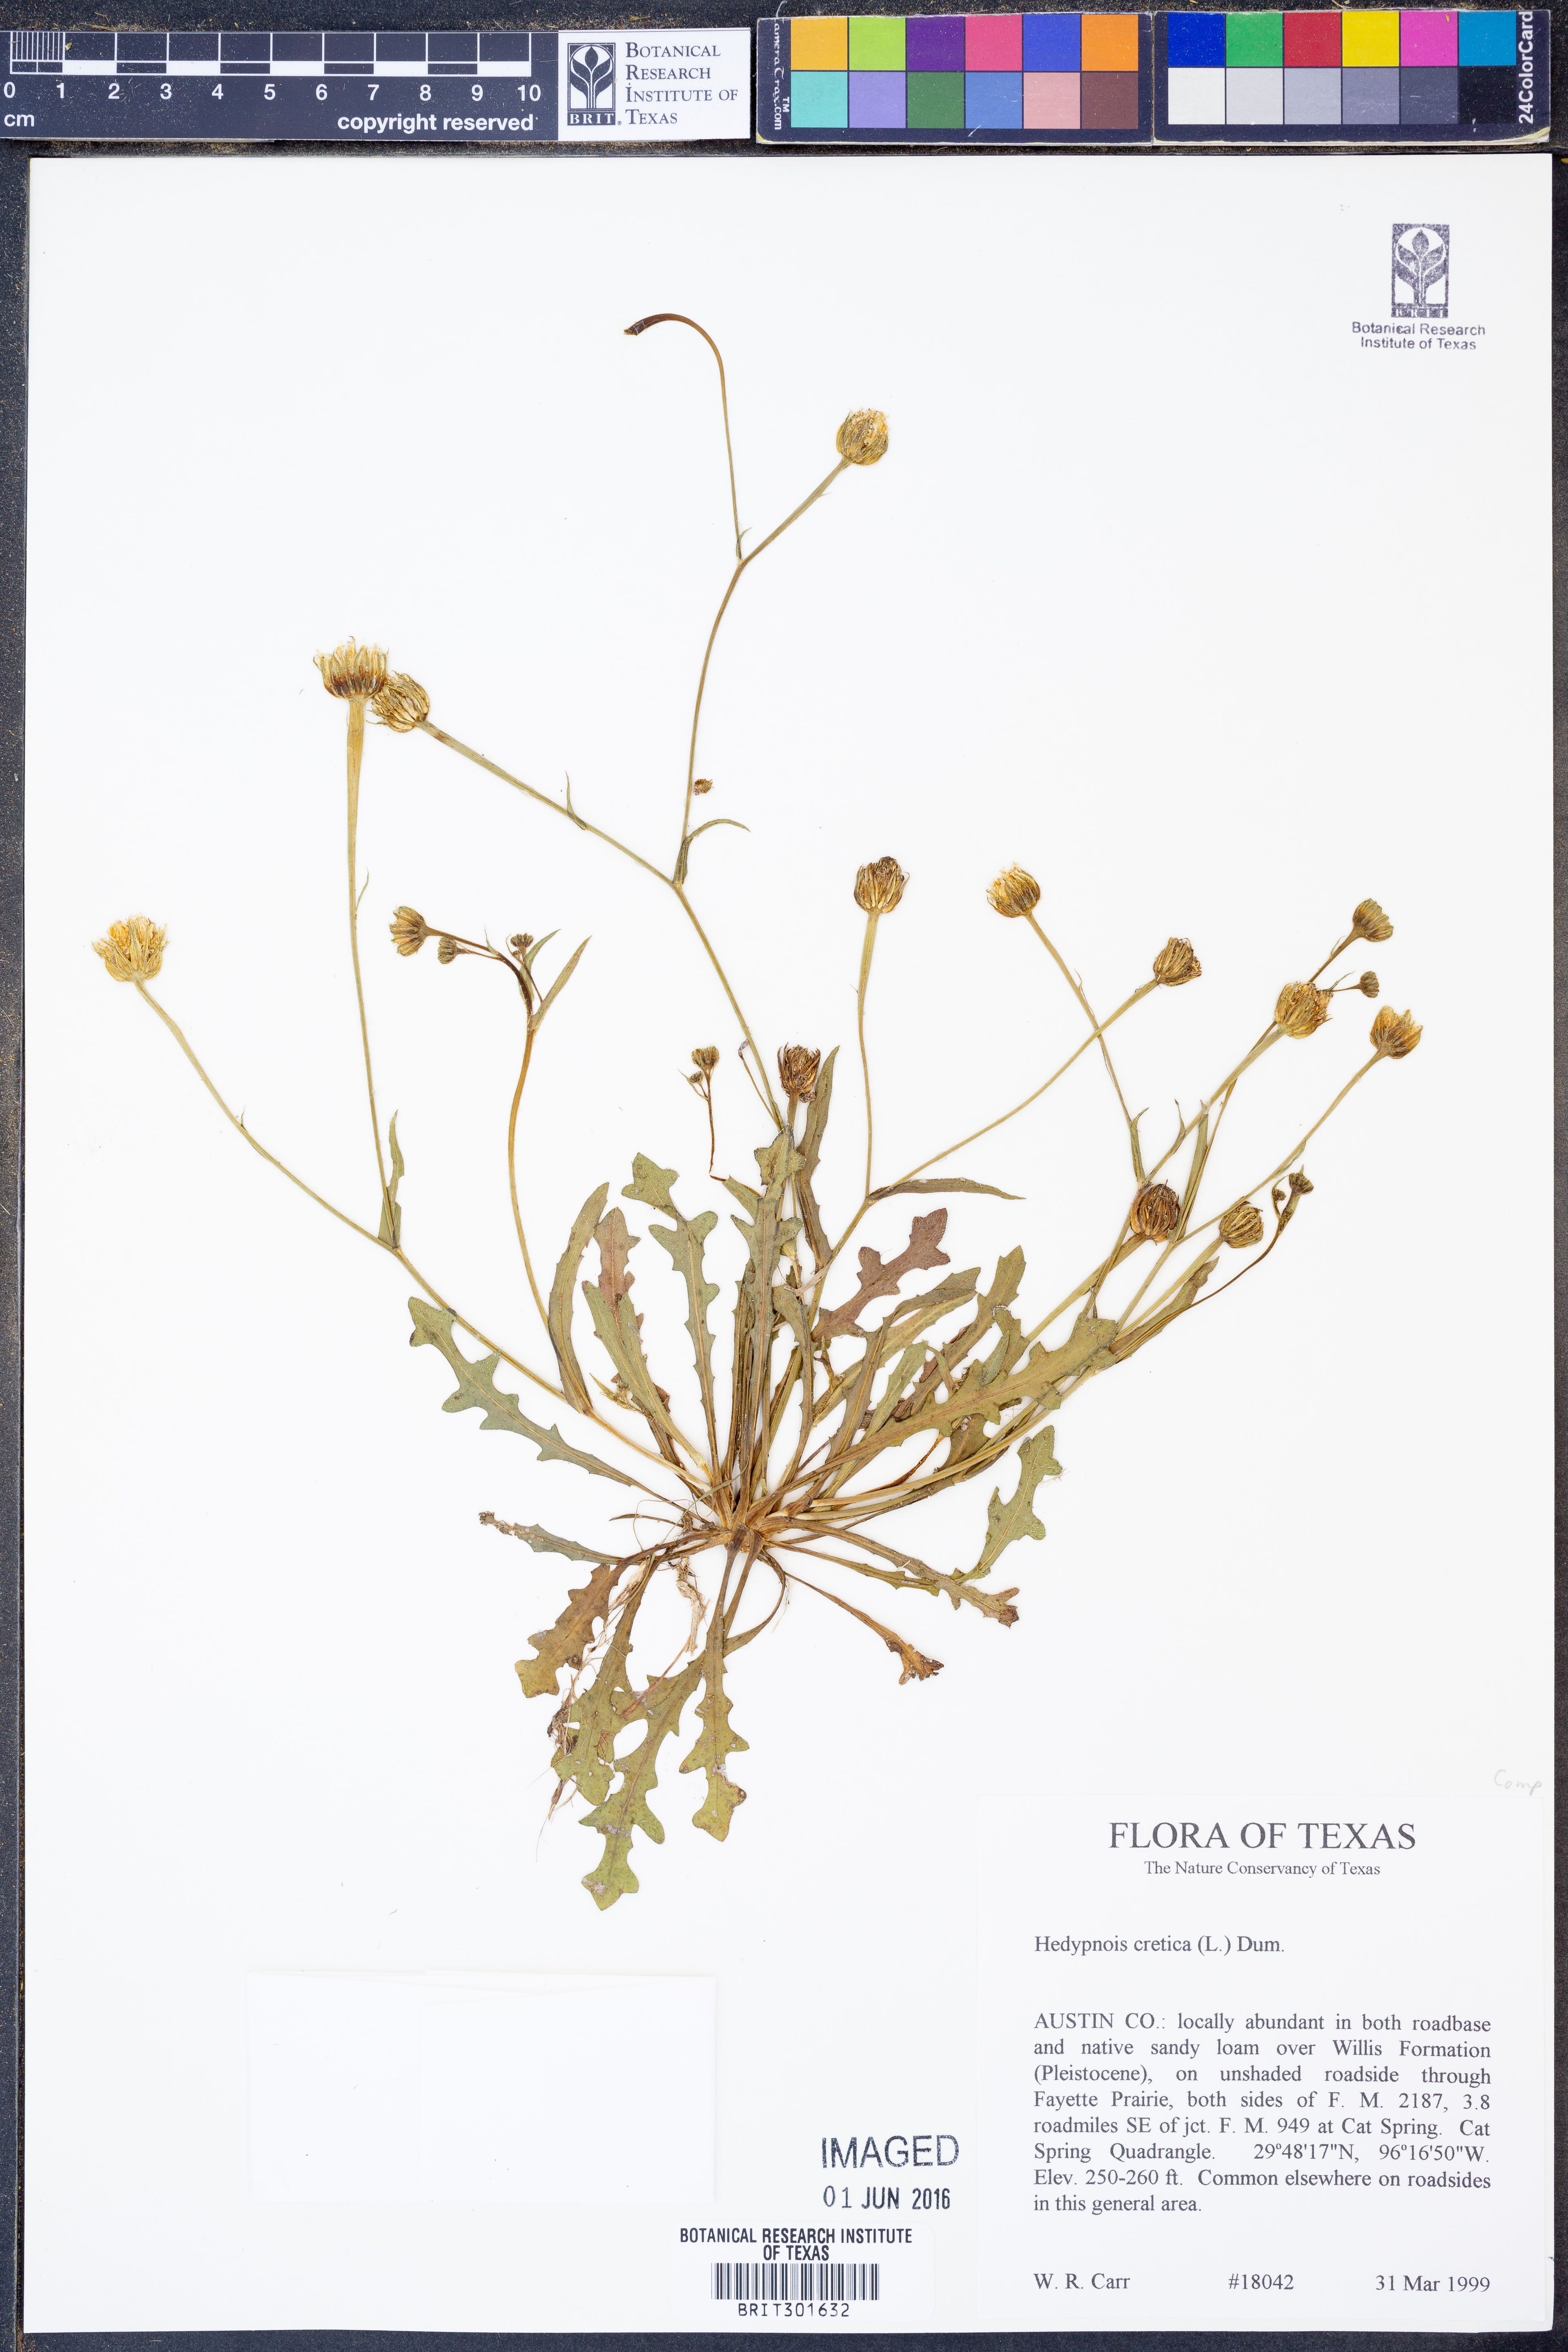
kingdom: Plantae
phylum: Tracheophyta
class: Magnoliopsida
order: Asterales
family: Asteraceae
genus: Hedypnois
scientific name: Hedypnois cretica
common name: Scaly hawkbit
